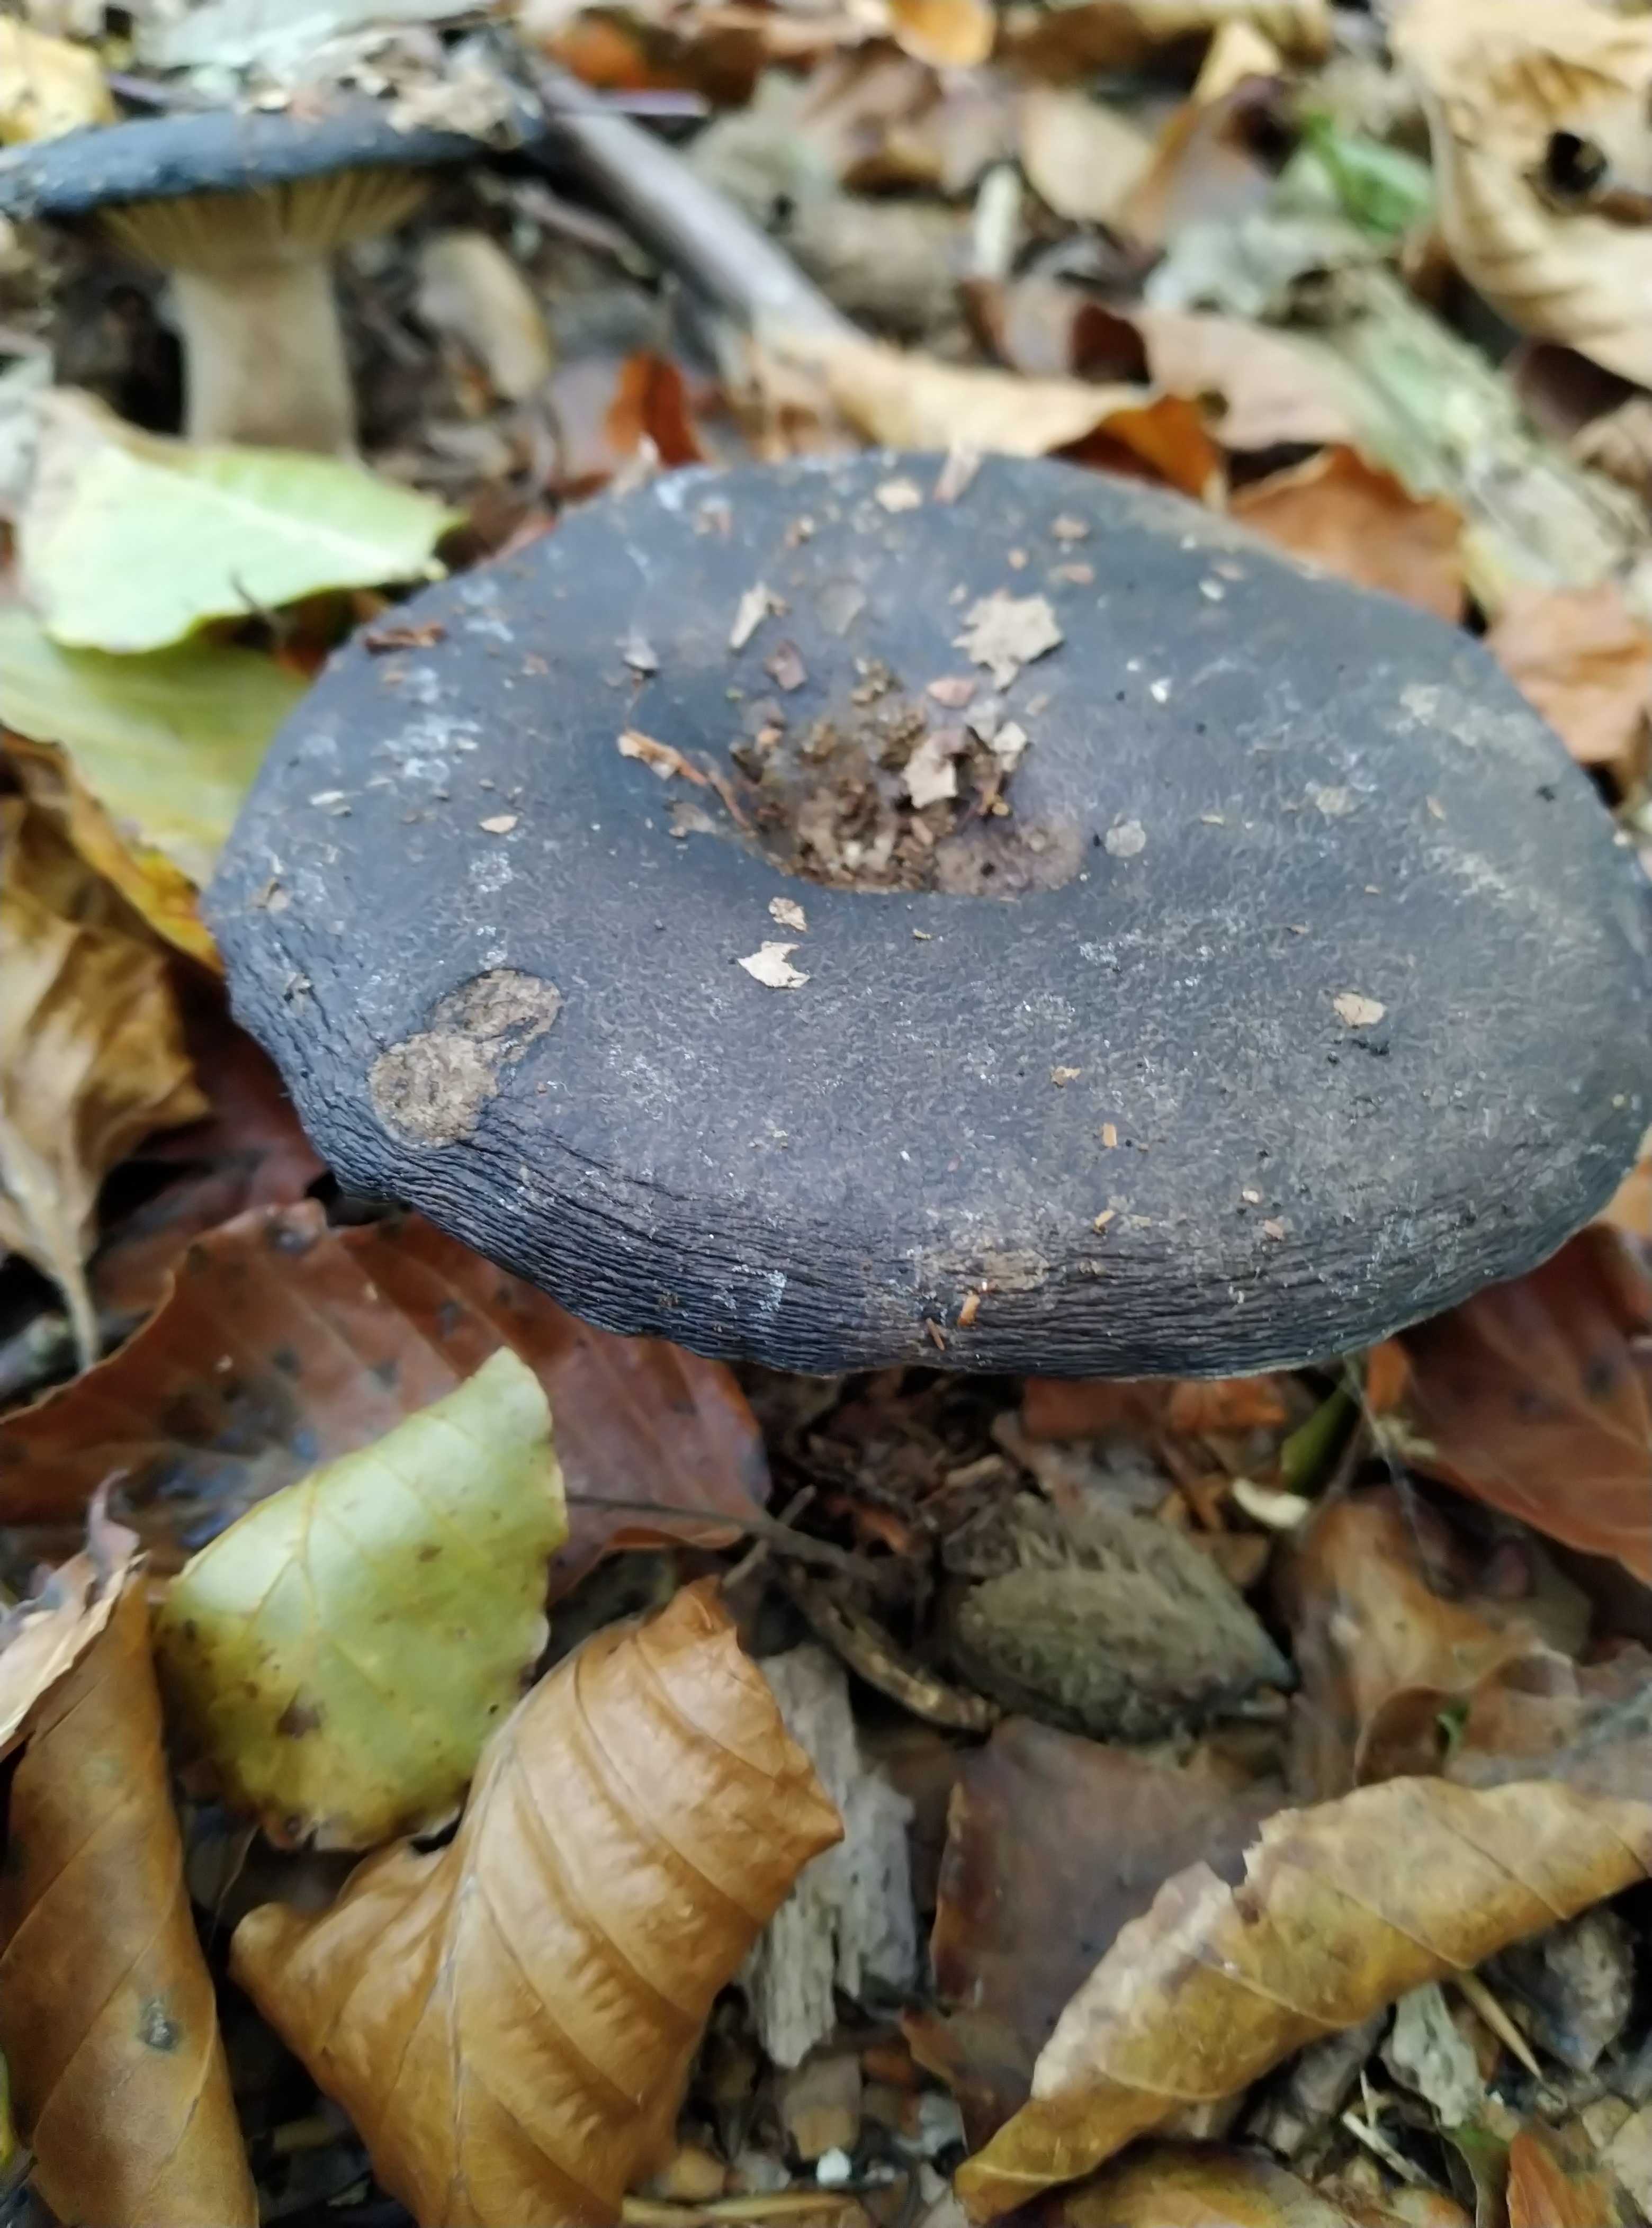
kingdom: Fungi
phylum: Basidiomycota
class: Agaricomycetes
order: Russulales
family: Russulaceae
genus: Russula
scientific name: Russula adusta
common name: sværtende skørhat
